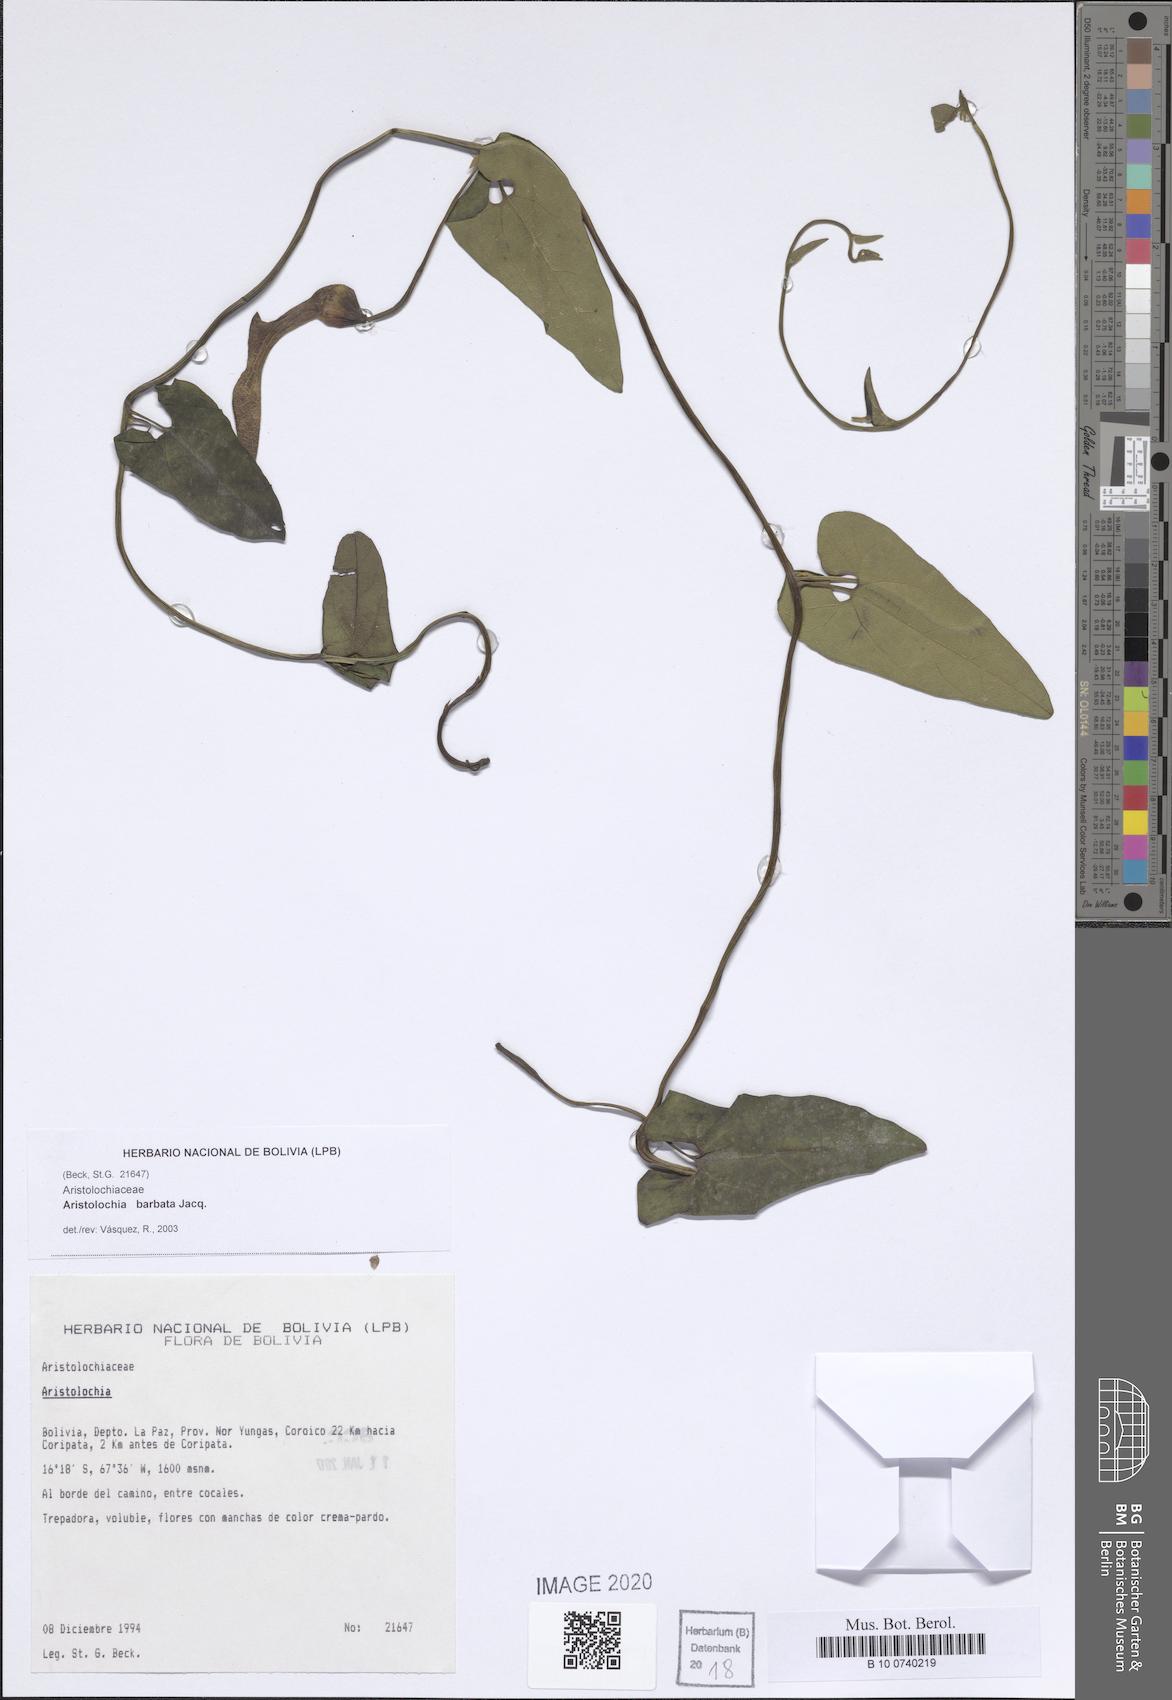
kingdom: Plantae
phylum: Tracheophyta
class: Magnoliopsida
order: Piperales
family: Aristolochiaceae
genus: Aristolochia
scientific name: Aristolochia rugosa
